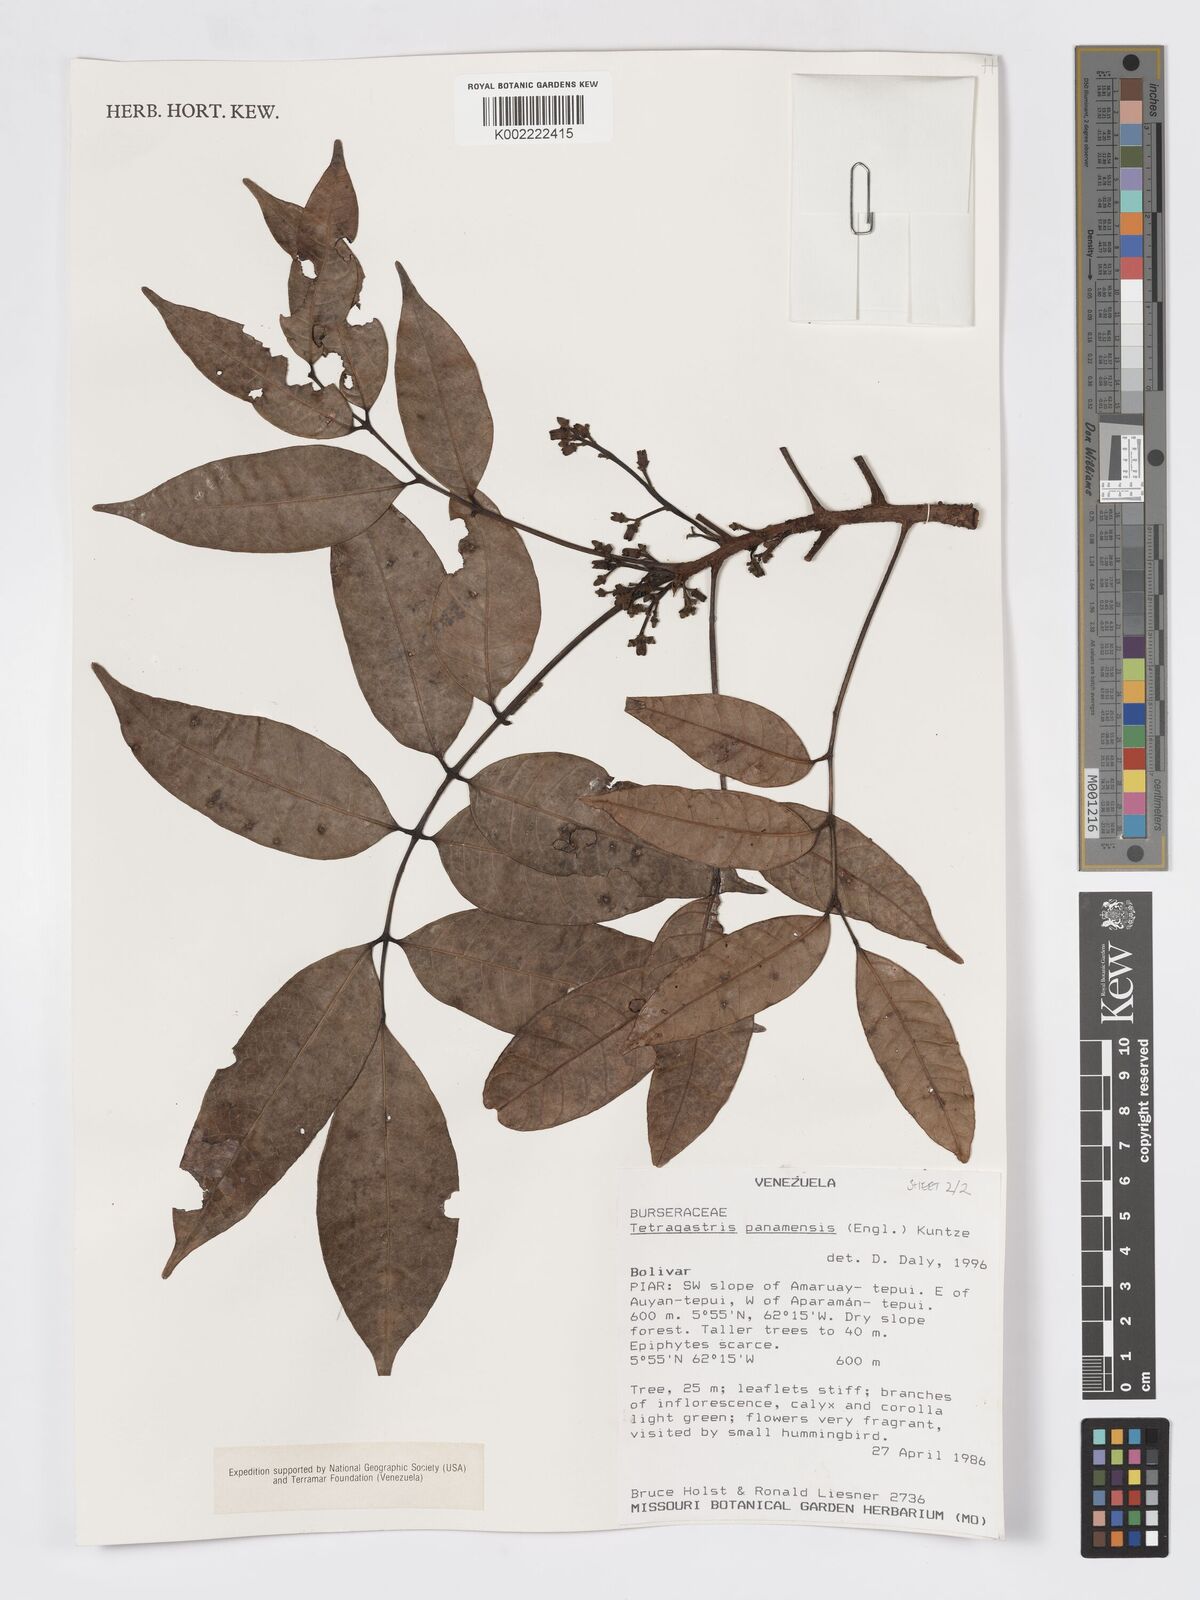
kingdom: Plantae
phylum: Tracheophyta
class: Magnoliopsida
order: Sapindales
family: Burseraceae
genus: Tetragastris
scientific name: Tetragastris panamensis
